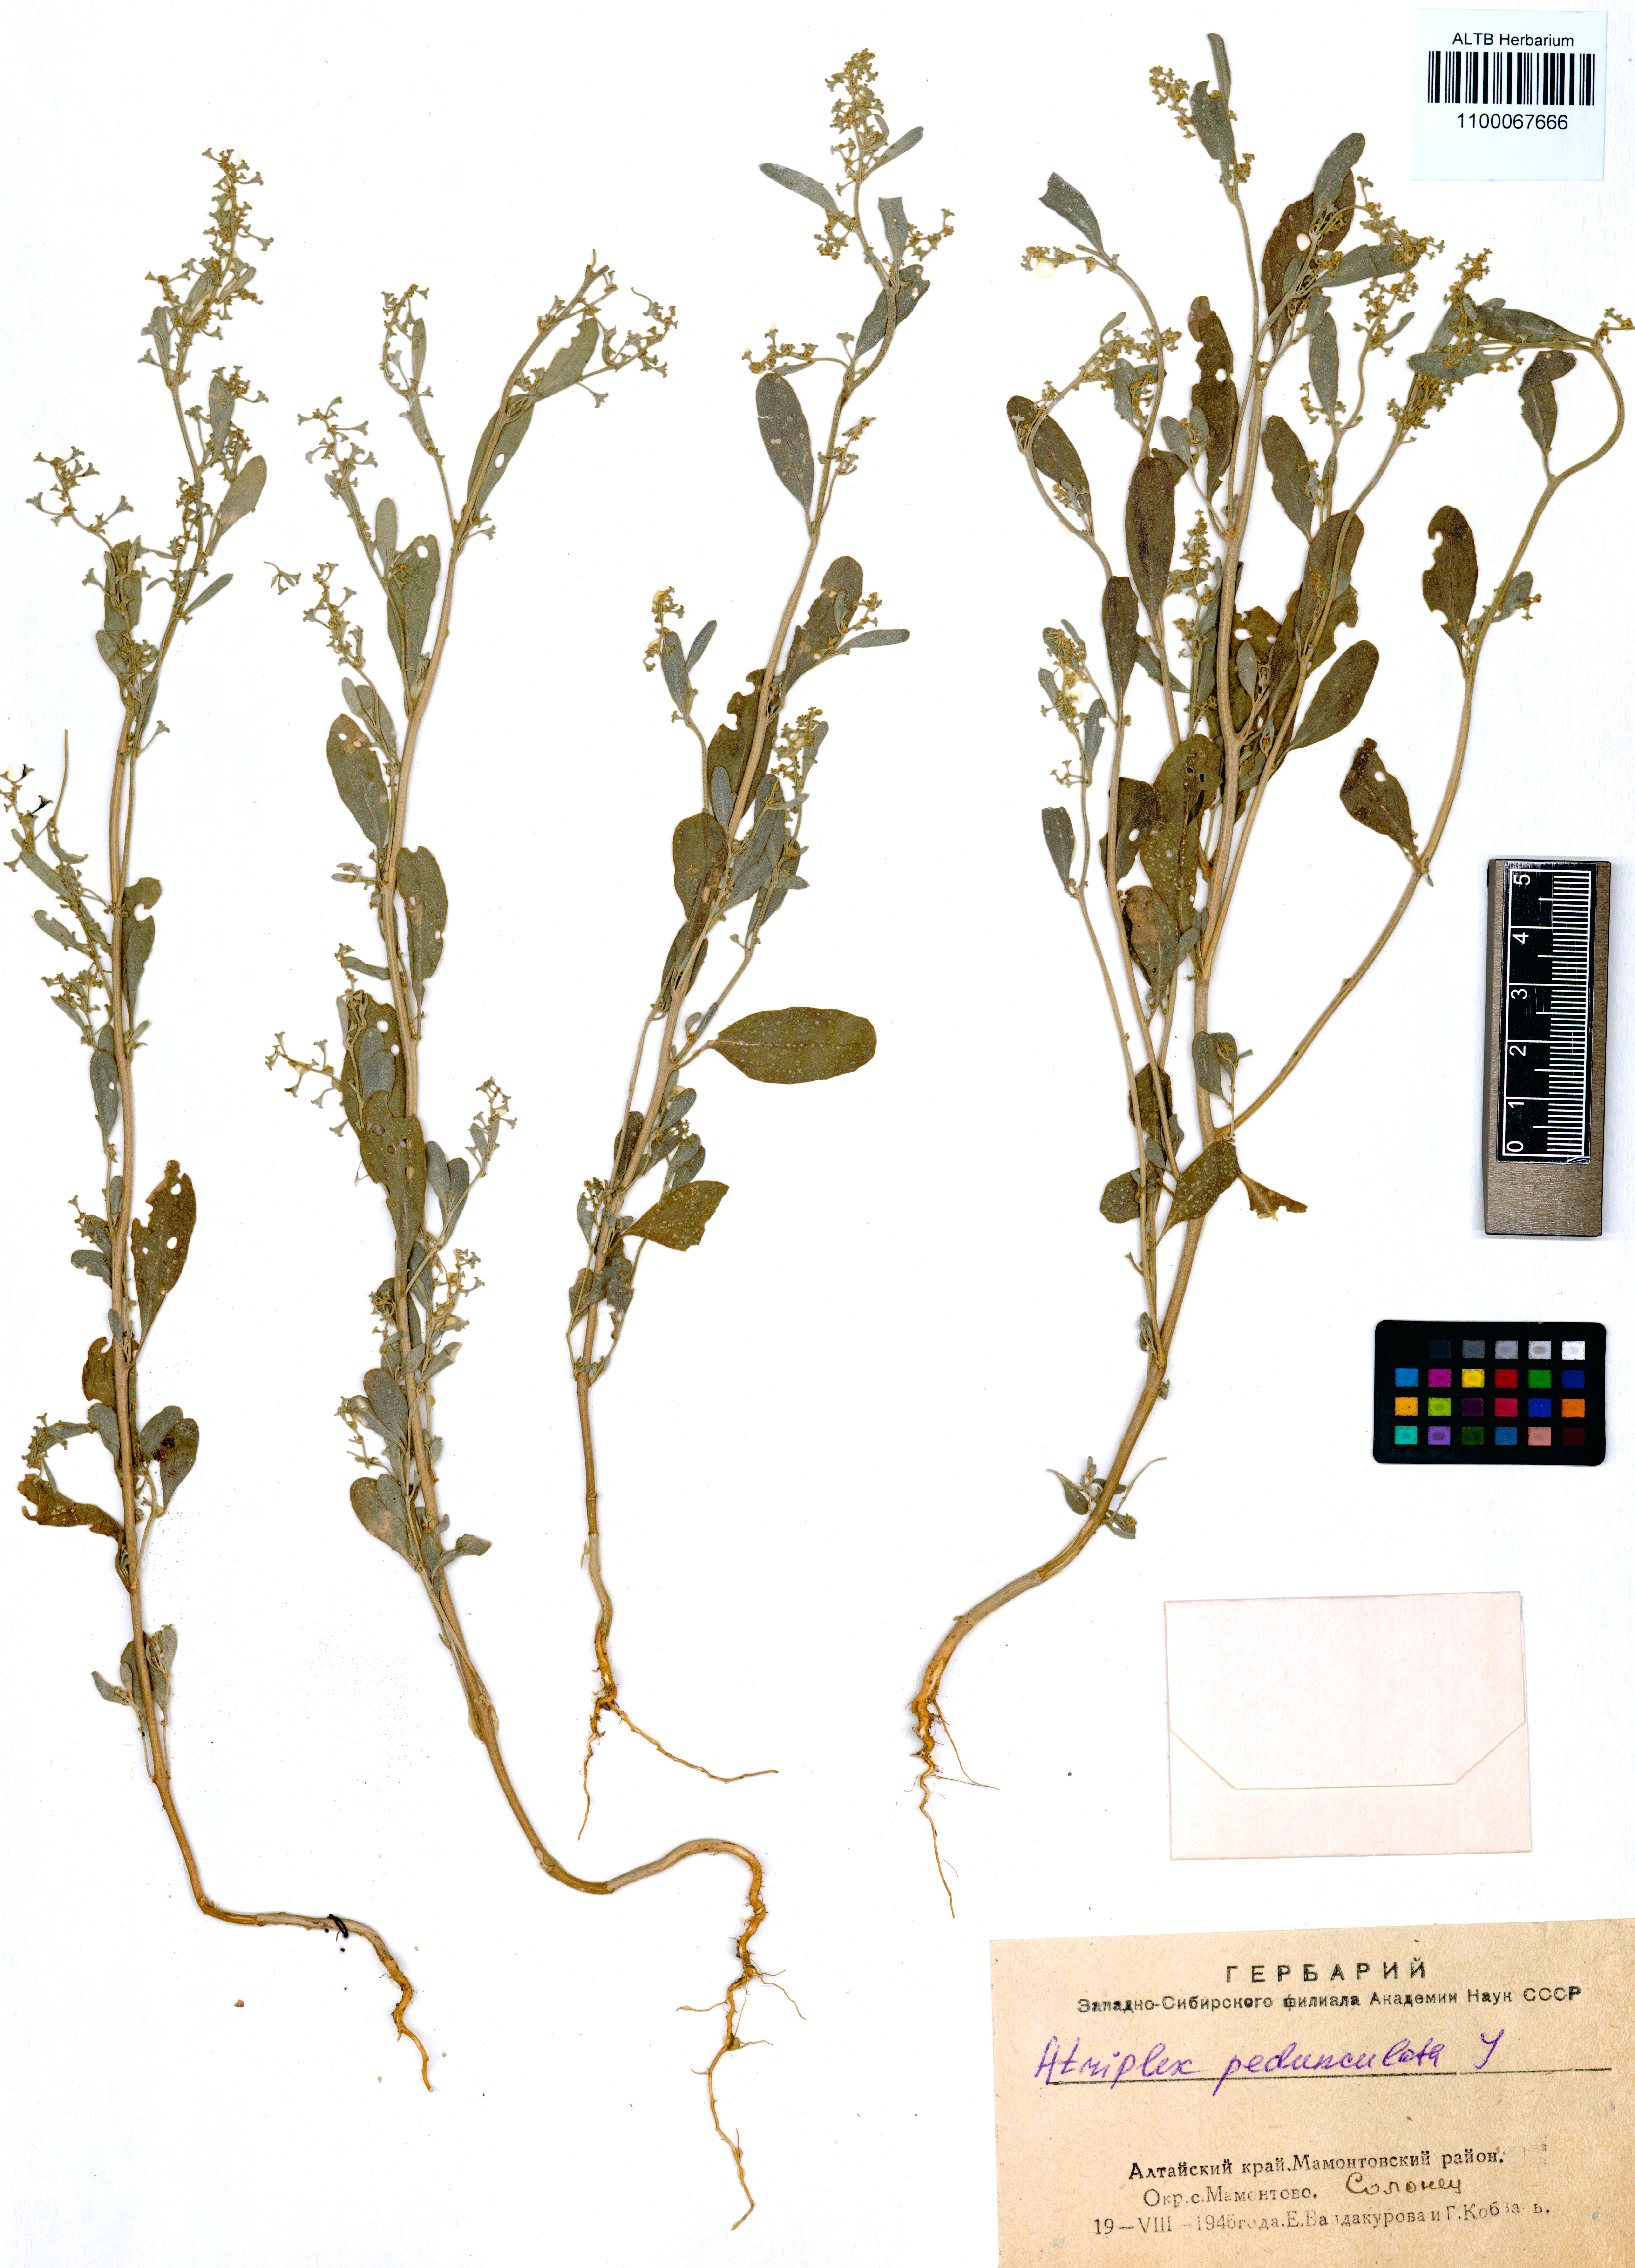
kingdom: Plantae
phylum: Tracheophyta
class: Magnoliopsida
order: Caryophyllales
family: Amaranthaceae
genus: Halimione
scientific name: Halimione pedunculata
